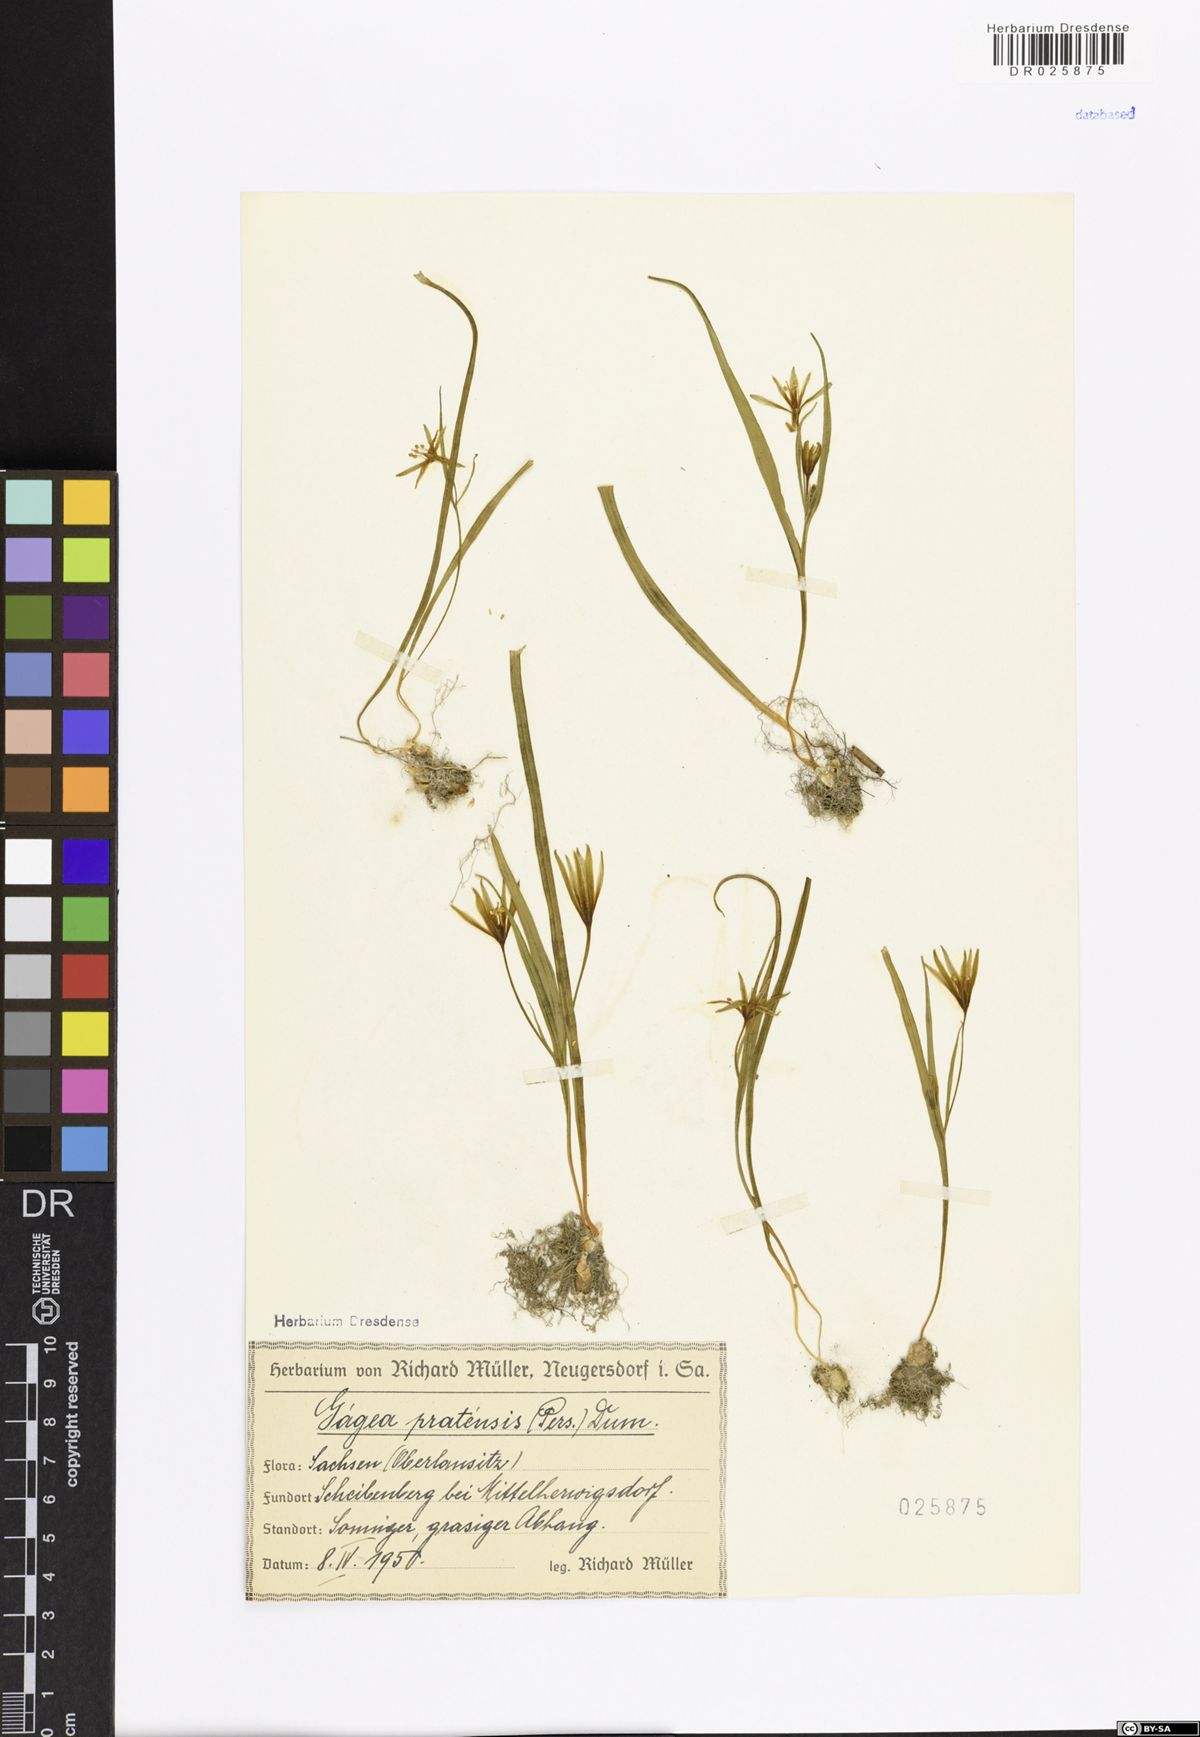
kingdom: Plantae
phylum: Tracheophyta
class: Liliopsida
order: Liliales
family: Liliaceae
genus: Gagea
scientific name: Gagea pratensis
